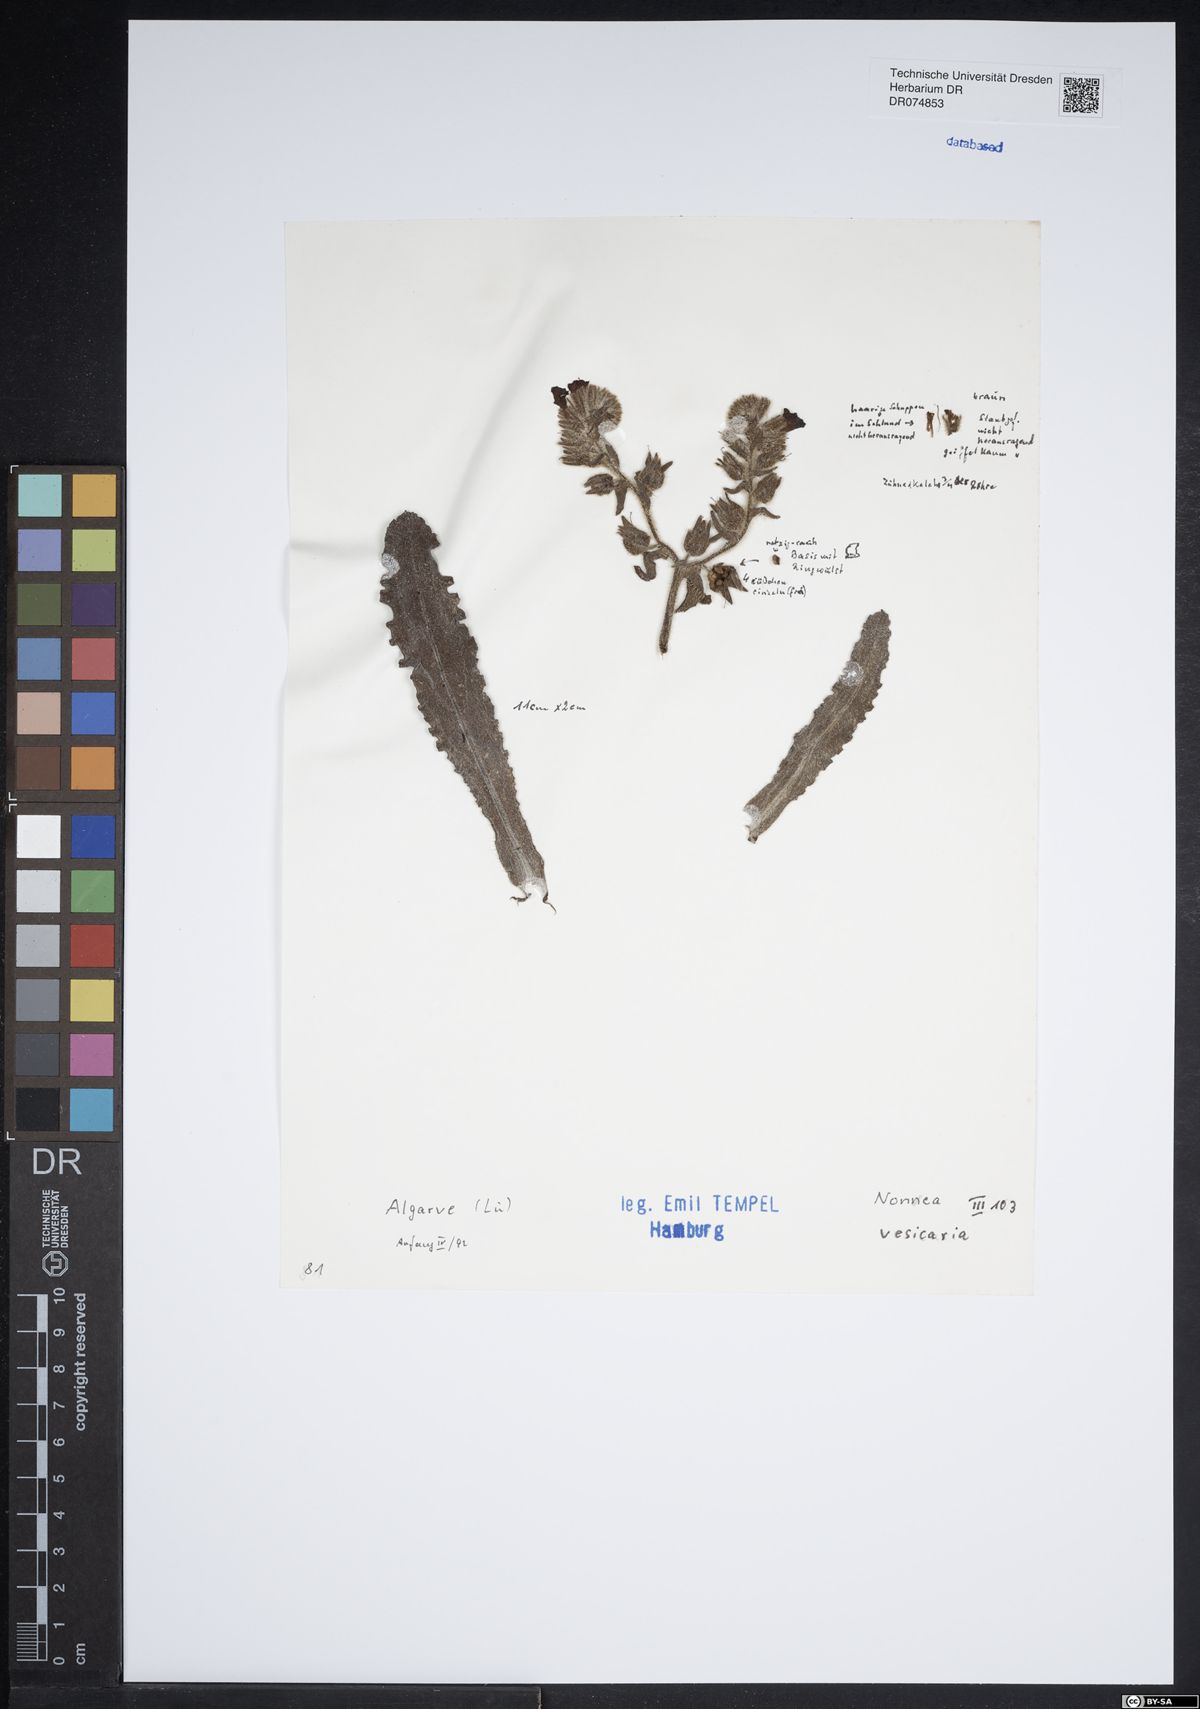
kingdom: Plantae
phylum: Tracheophyta
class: Magnoliopsida
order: Boraginales
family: Boraginaceae
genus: Nonea
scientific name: Nonea vesicaria
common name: Red monkswort
